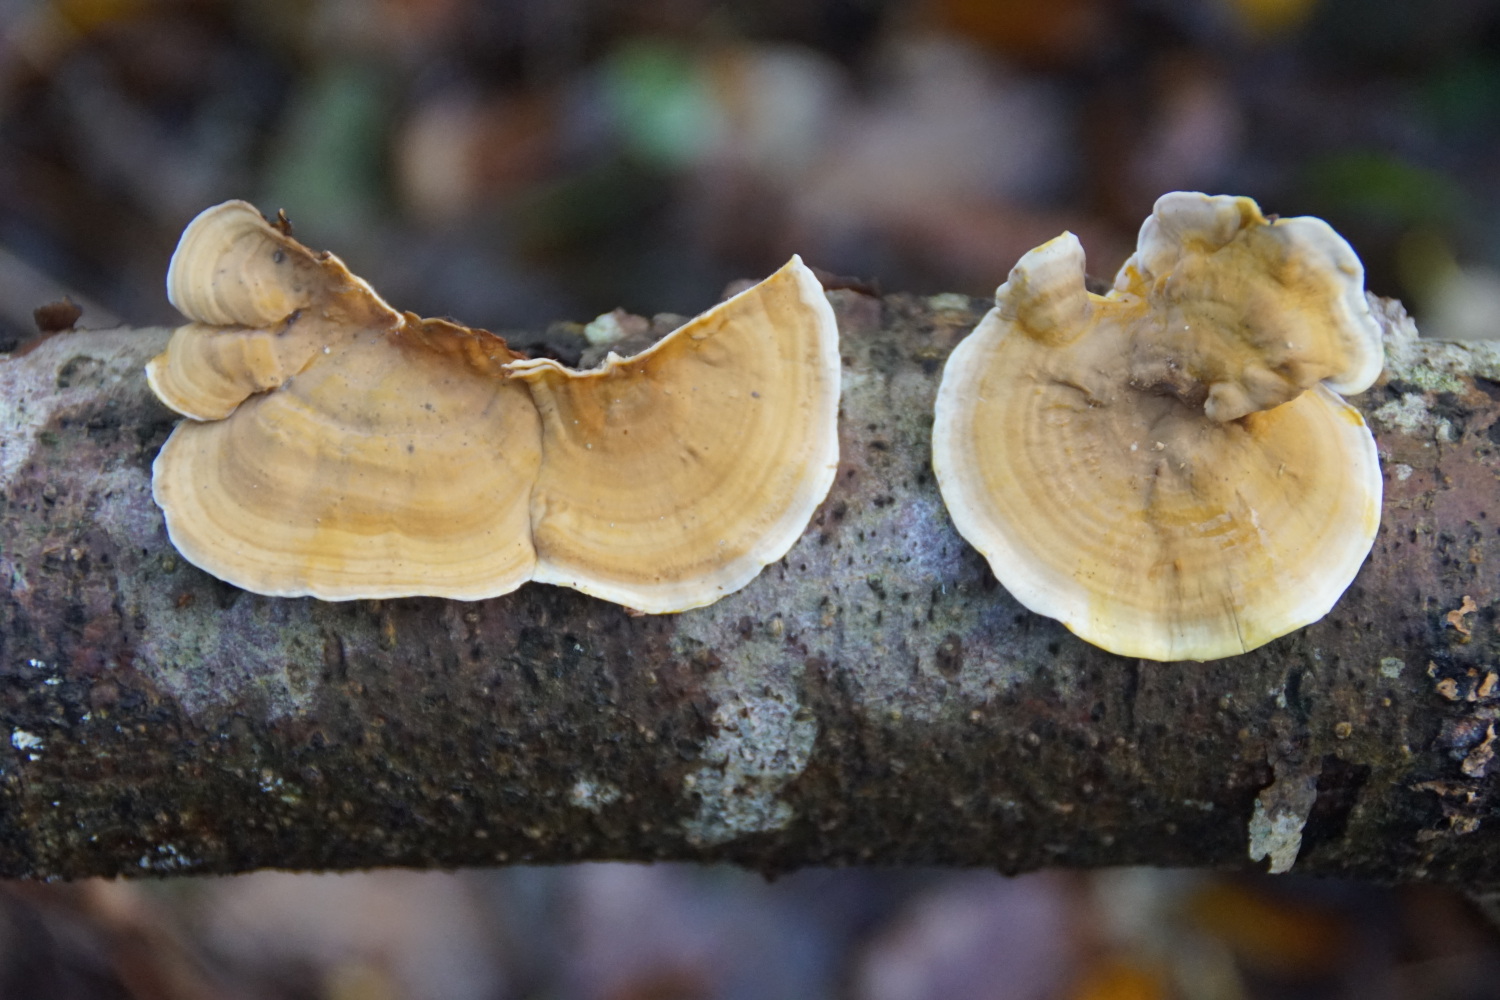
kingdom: Fungi
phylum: Basidiomycota
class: Agaricomycetes
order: Russulales
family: Stereaceae
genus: Stereum
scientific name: Stereum subtomentosum
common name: smuk lædersvamp
